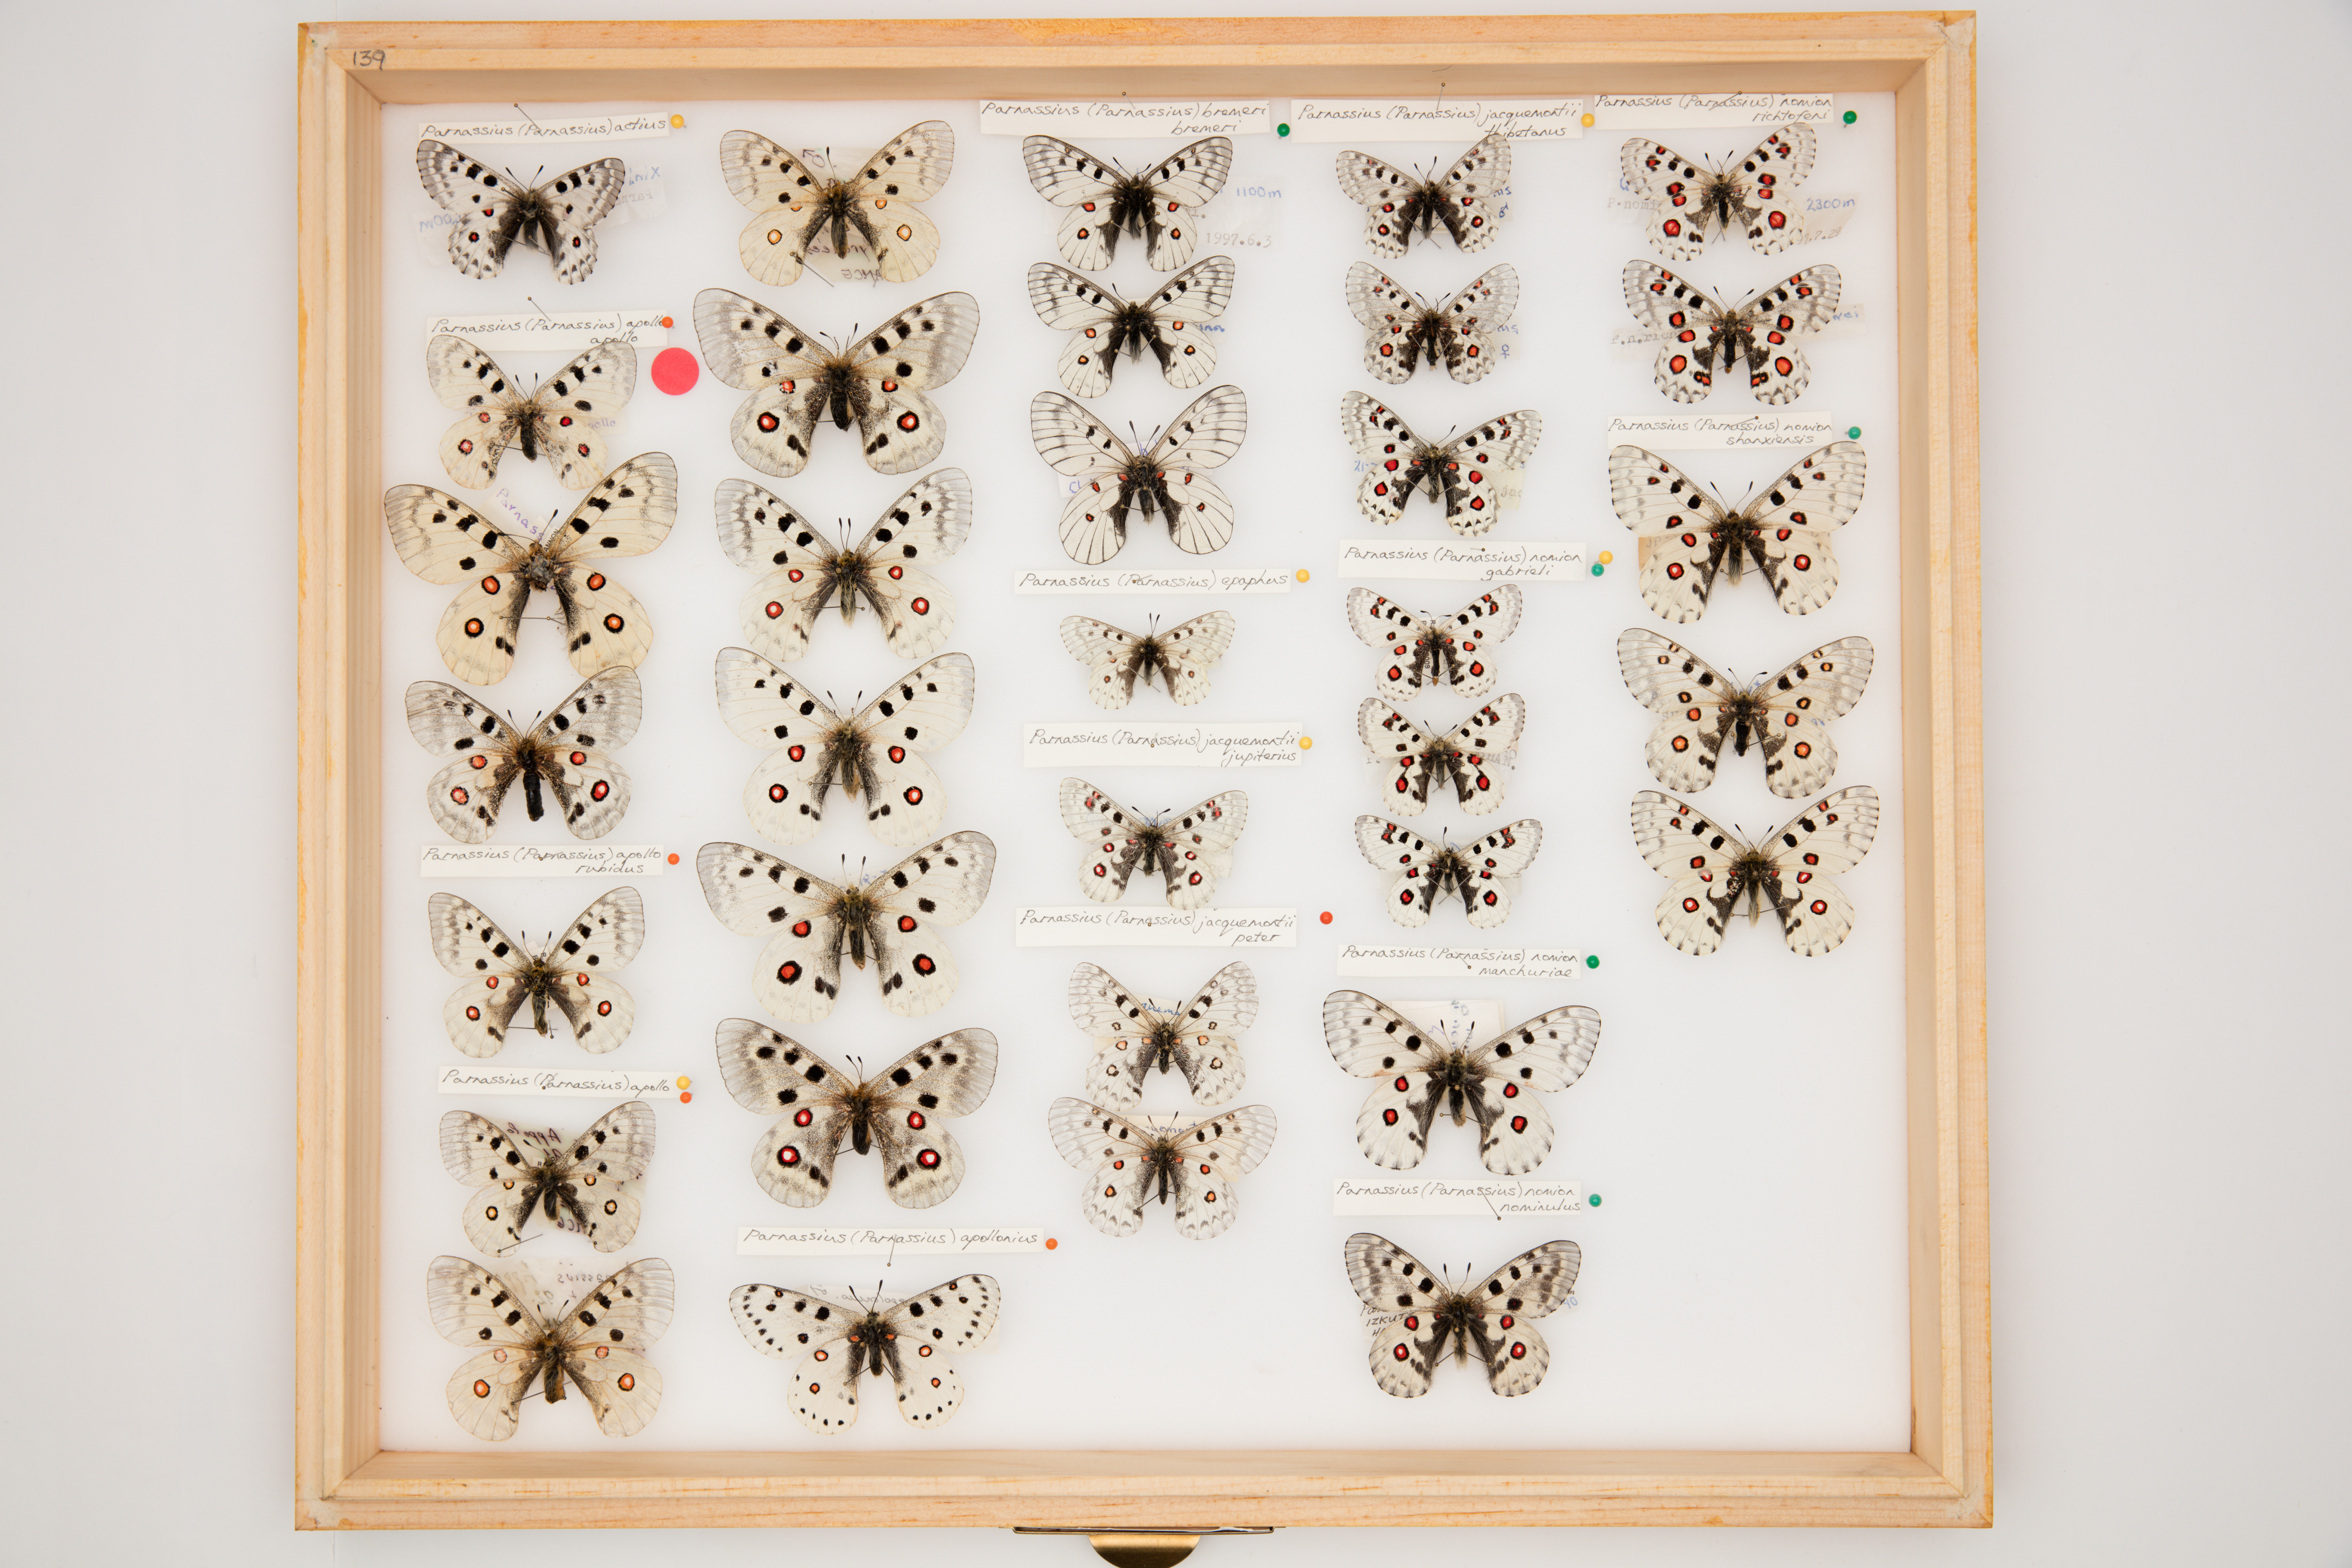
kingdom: Animalia
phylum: Arthropoda
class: Insecta
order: Lepidoptera
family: Papilionidae
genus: Parnassius
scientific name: Parnassius apollo
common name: Apollo
